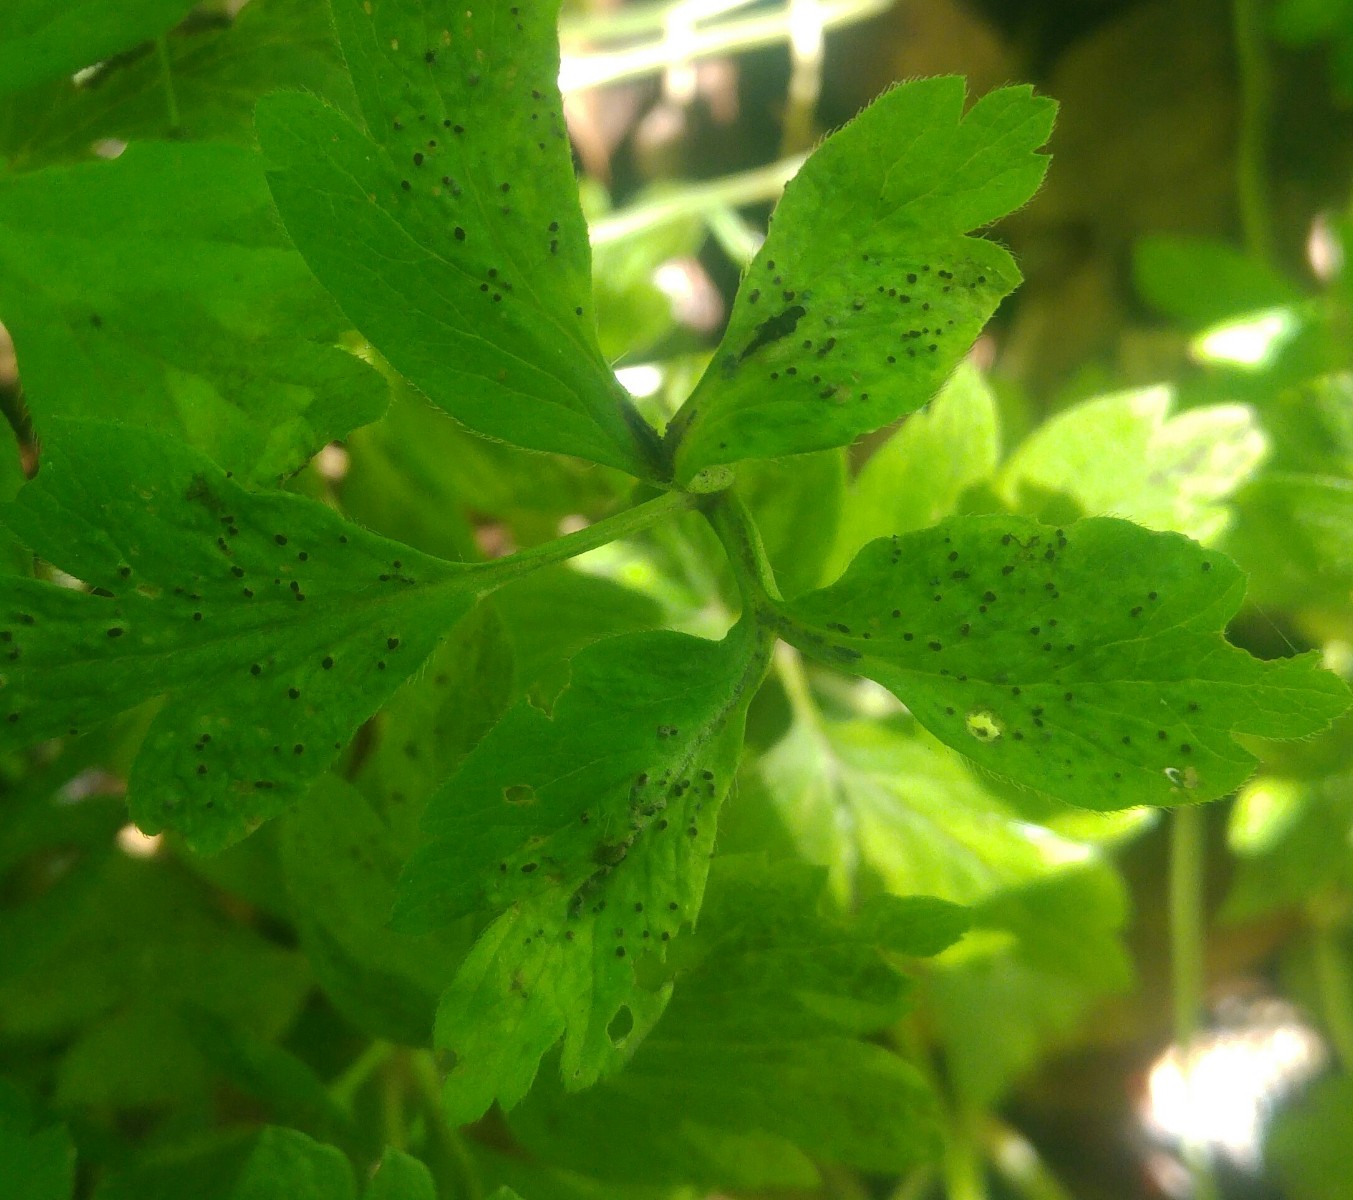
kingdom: Fungi
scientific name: Fungi
